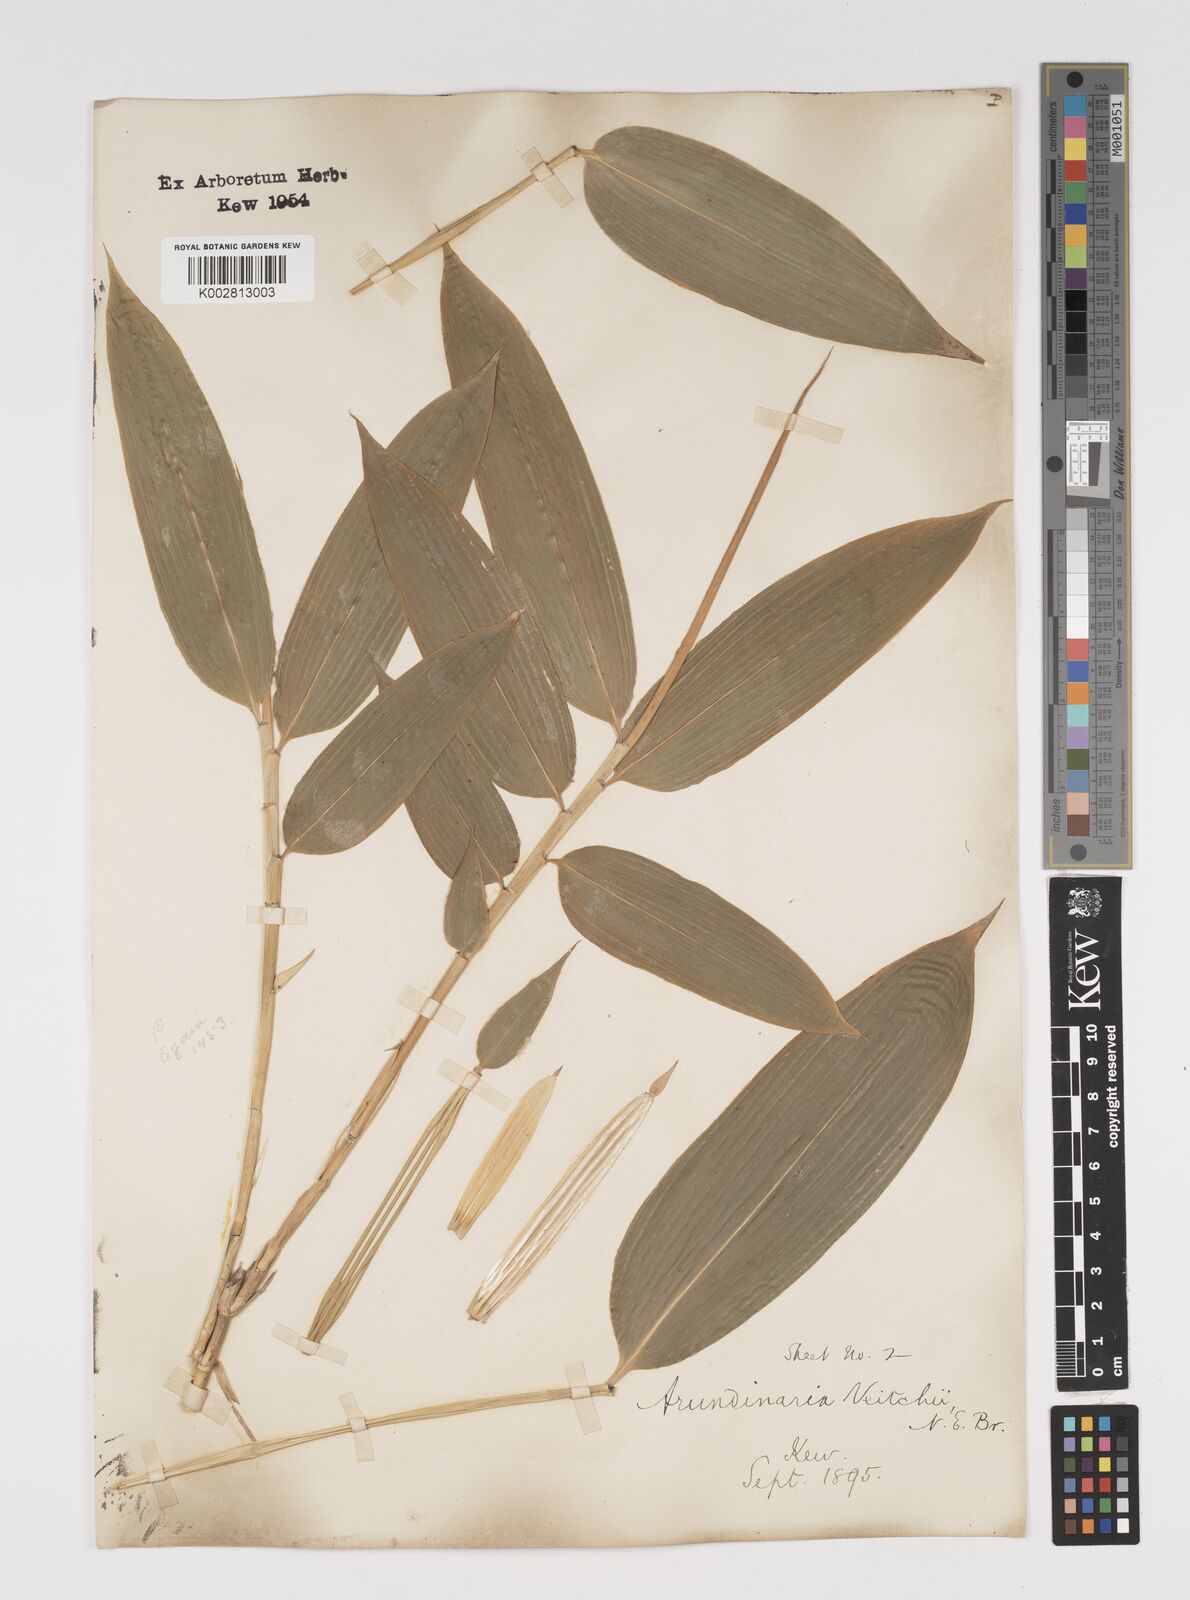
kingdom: Plantae
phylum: Tracheophyta
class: Liliopsida
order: Poales
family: Poaceae
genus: Sasa
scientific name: Sasa veitchii
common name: Veitch's bamboo
